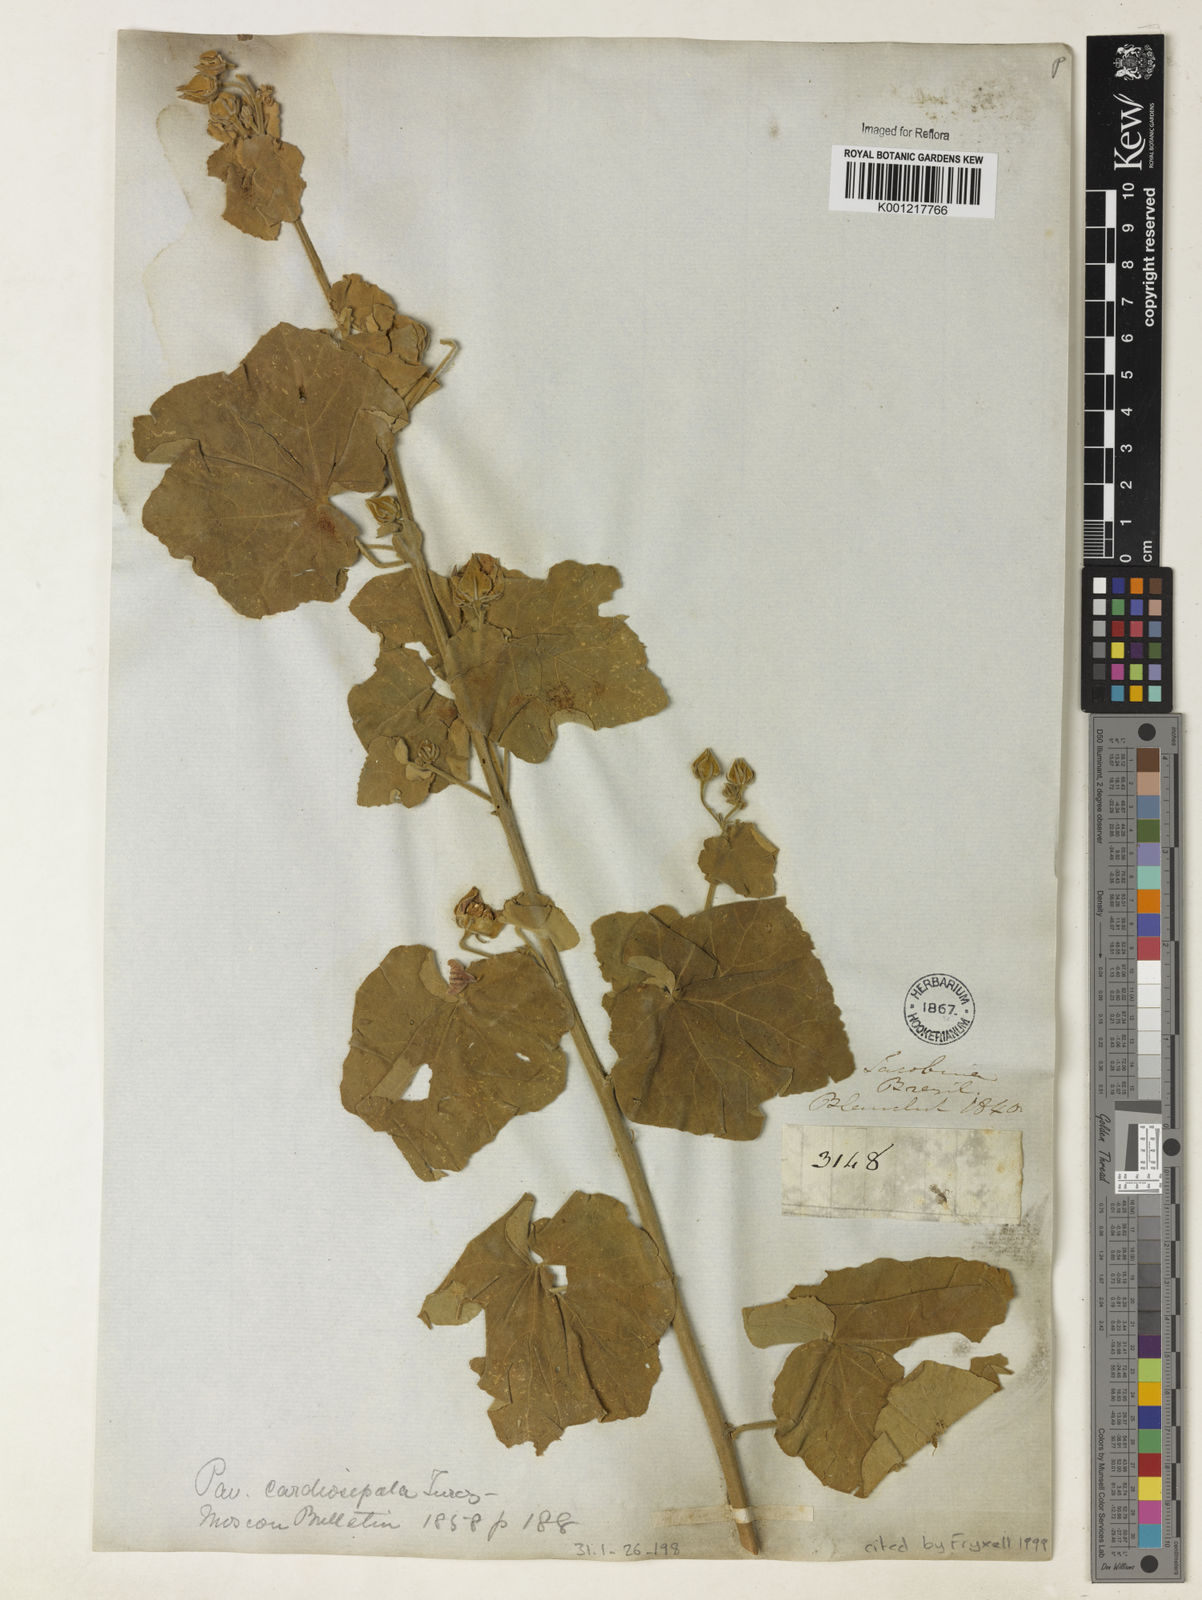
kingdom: Plantae
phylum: Tracheophyta
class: Magnoliopsida
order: Malvales
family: Malvaceae
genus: Pavonia
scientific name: Pavonia varians
